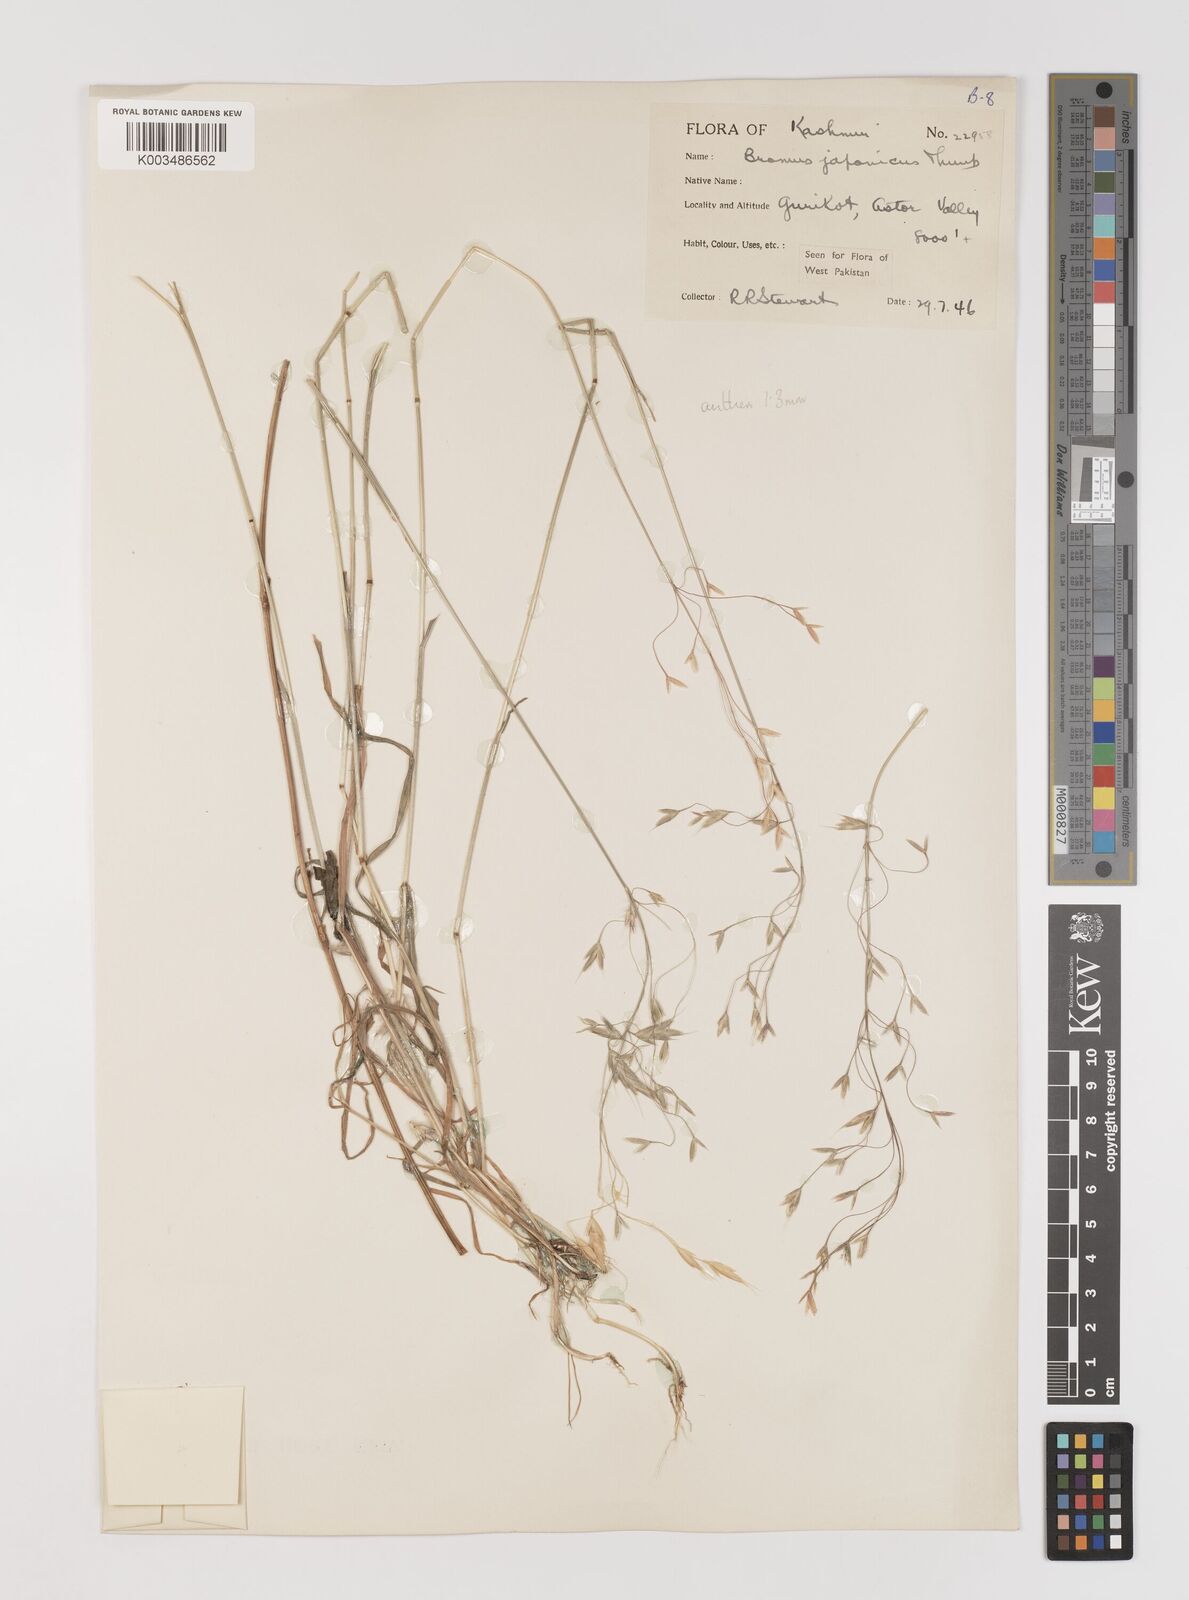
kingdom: Plantae
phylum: Tracheophyta
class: Liliopsida
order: Poales
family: Poaceae
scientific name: Poaceae
